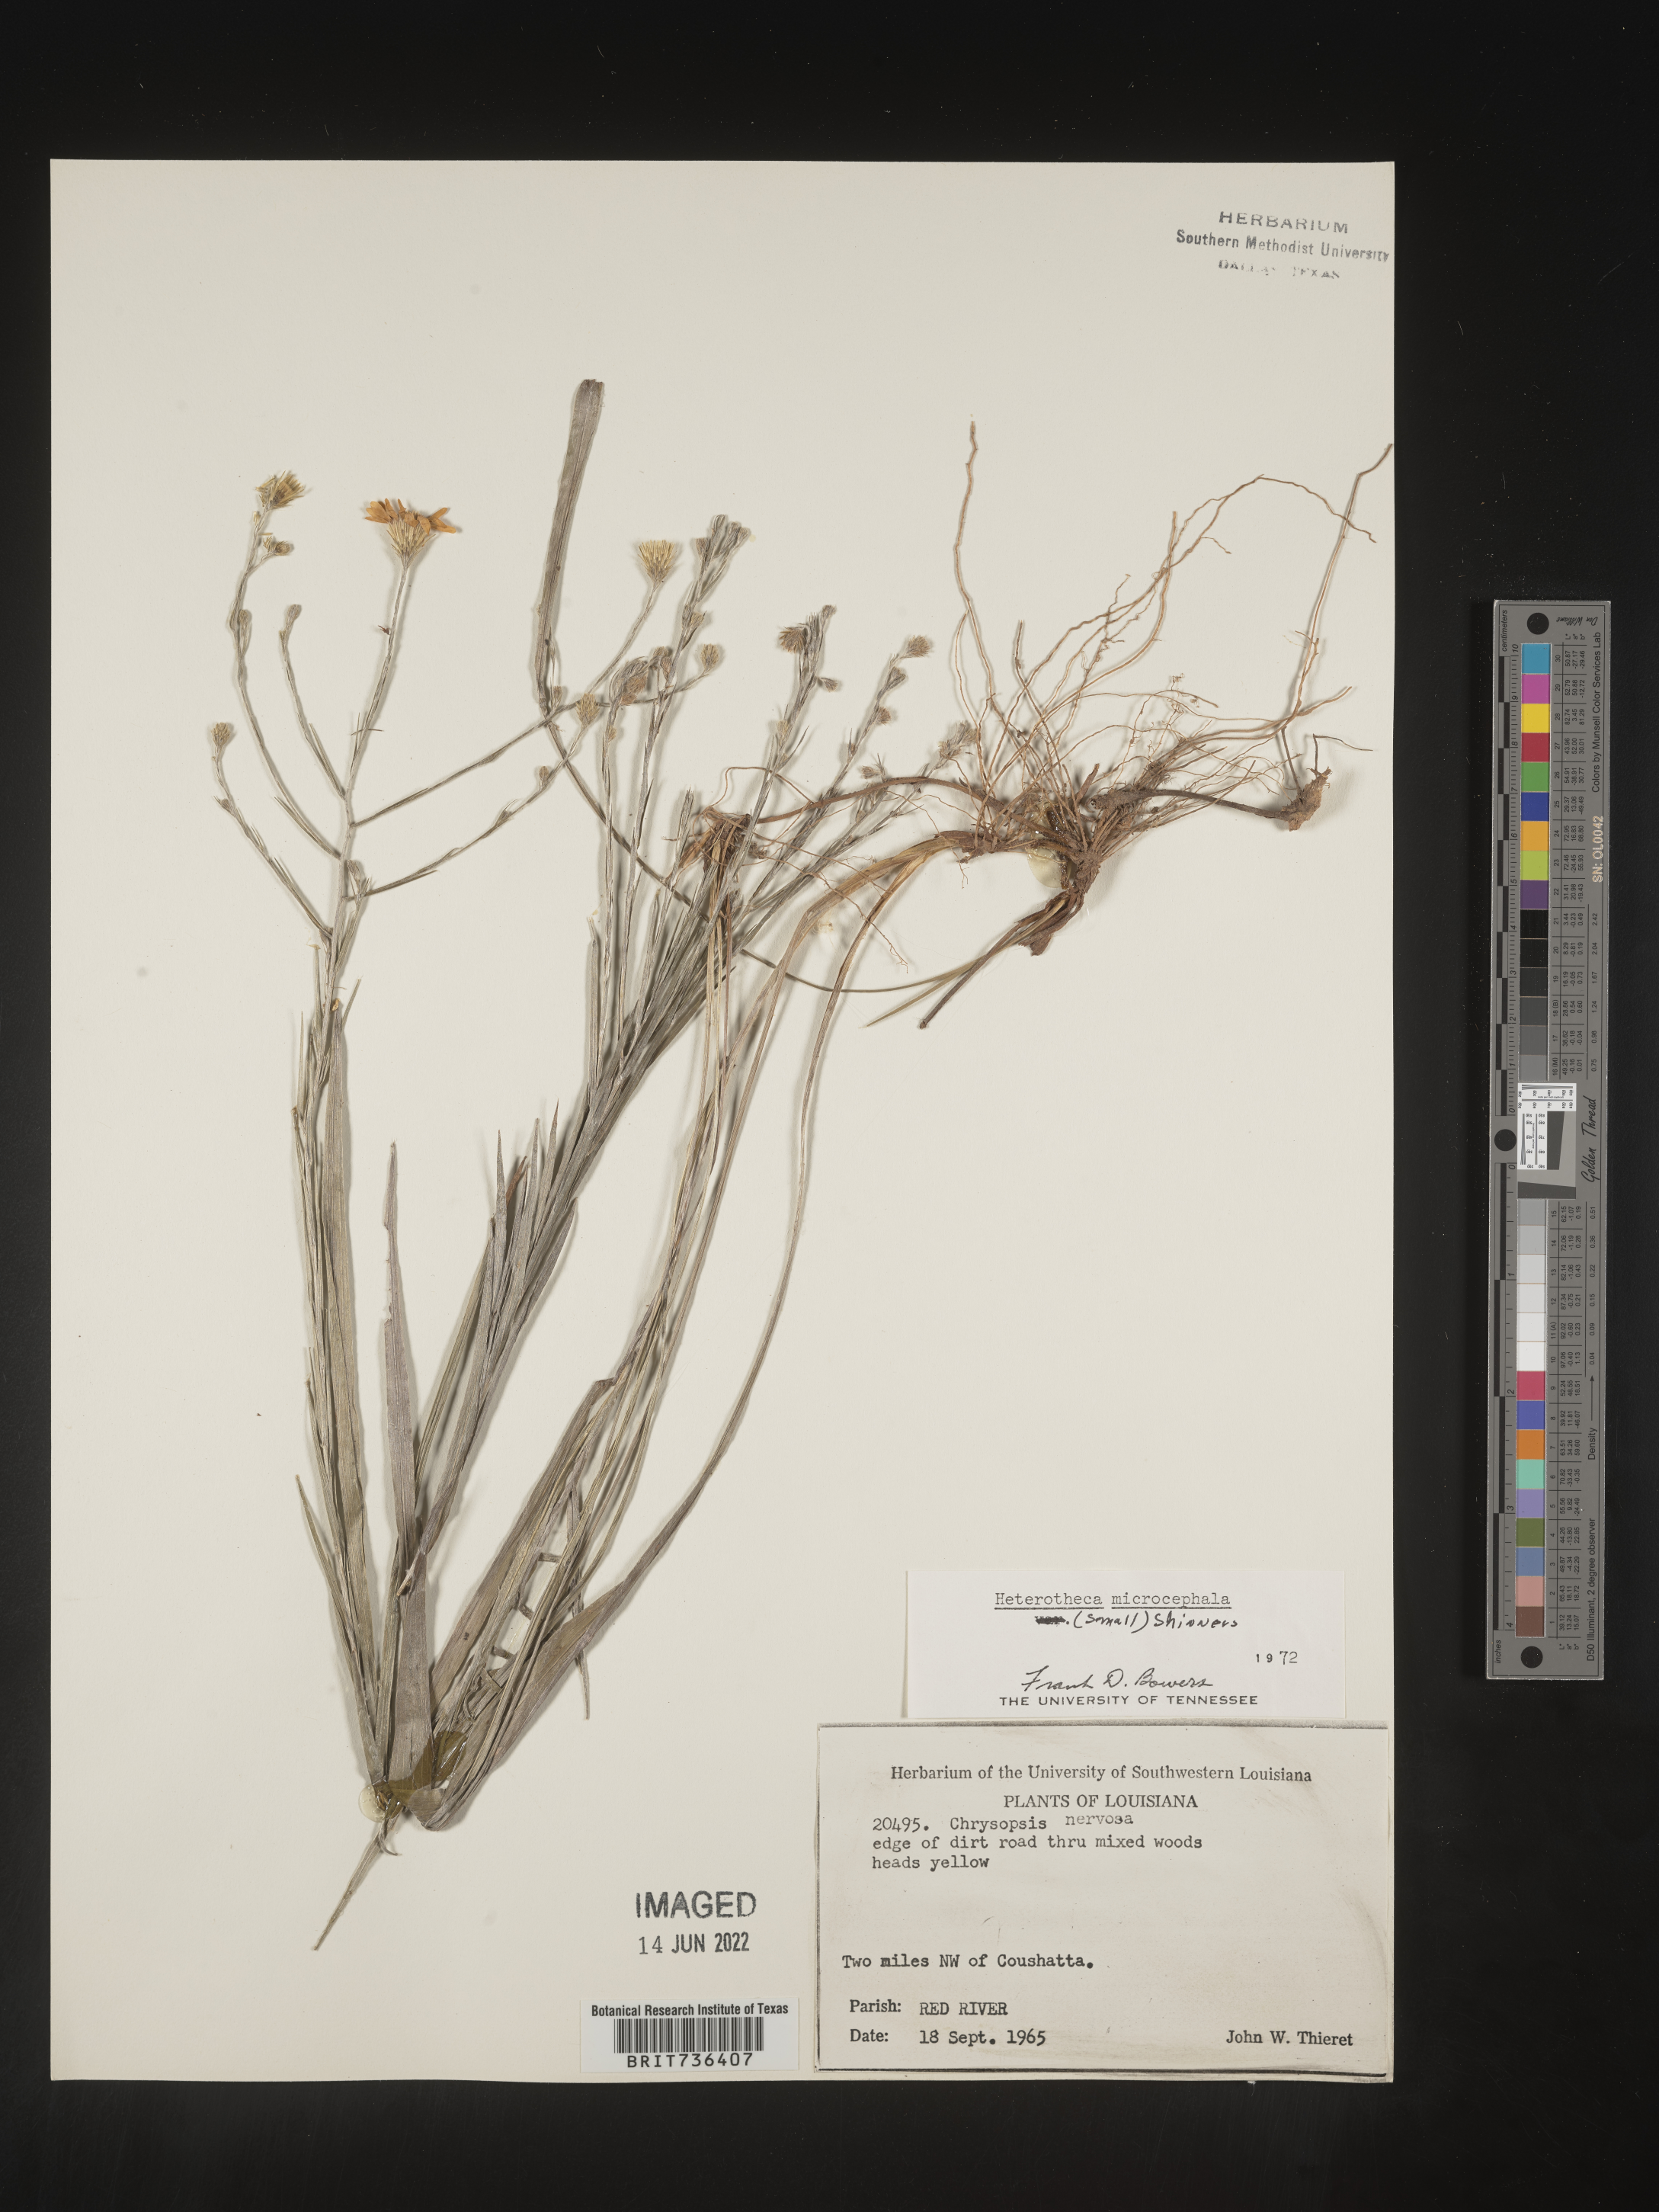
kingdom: Plantae
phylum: Tracheophyta
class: Magnoliopsida
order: Asterales
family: Asteraceae
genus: Pityopsis
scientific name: Pityopsis tenuifolia
